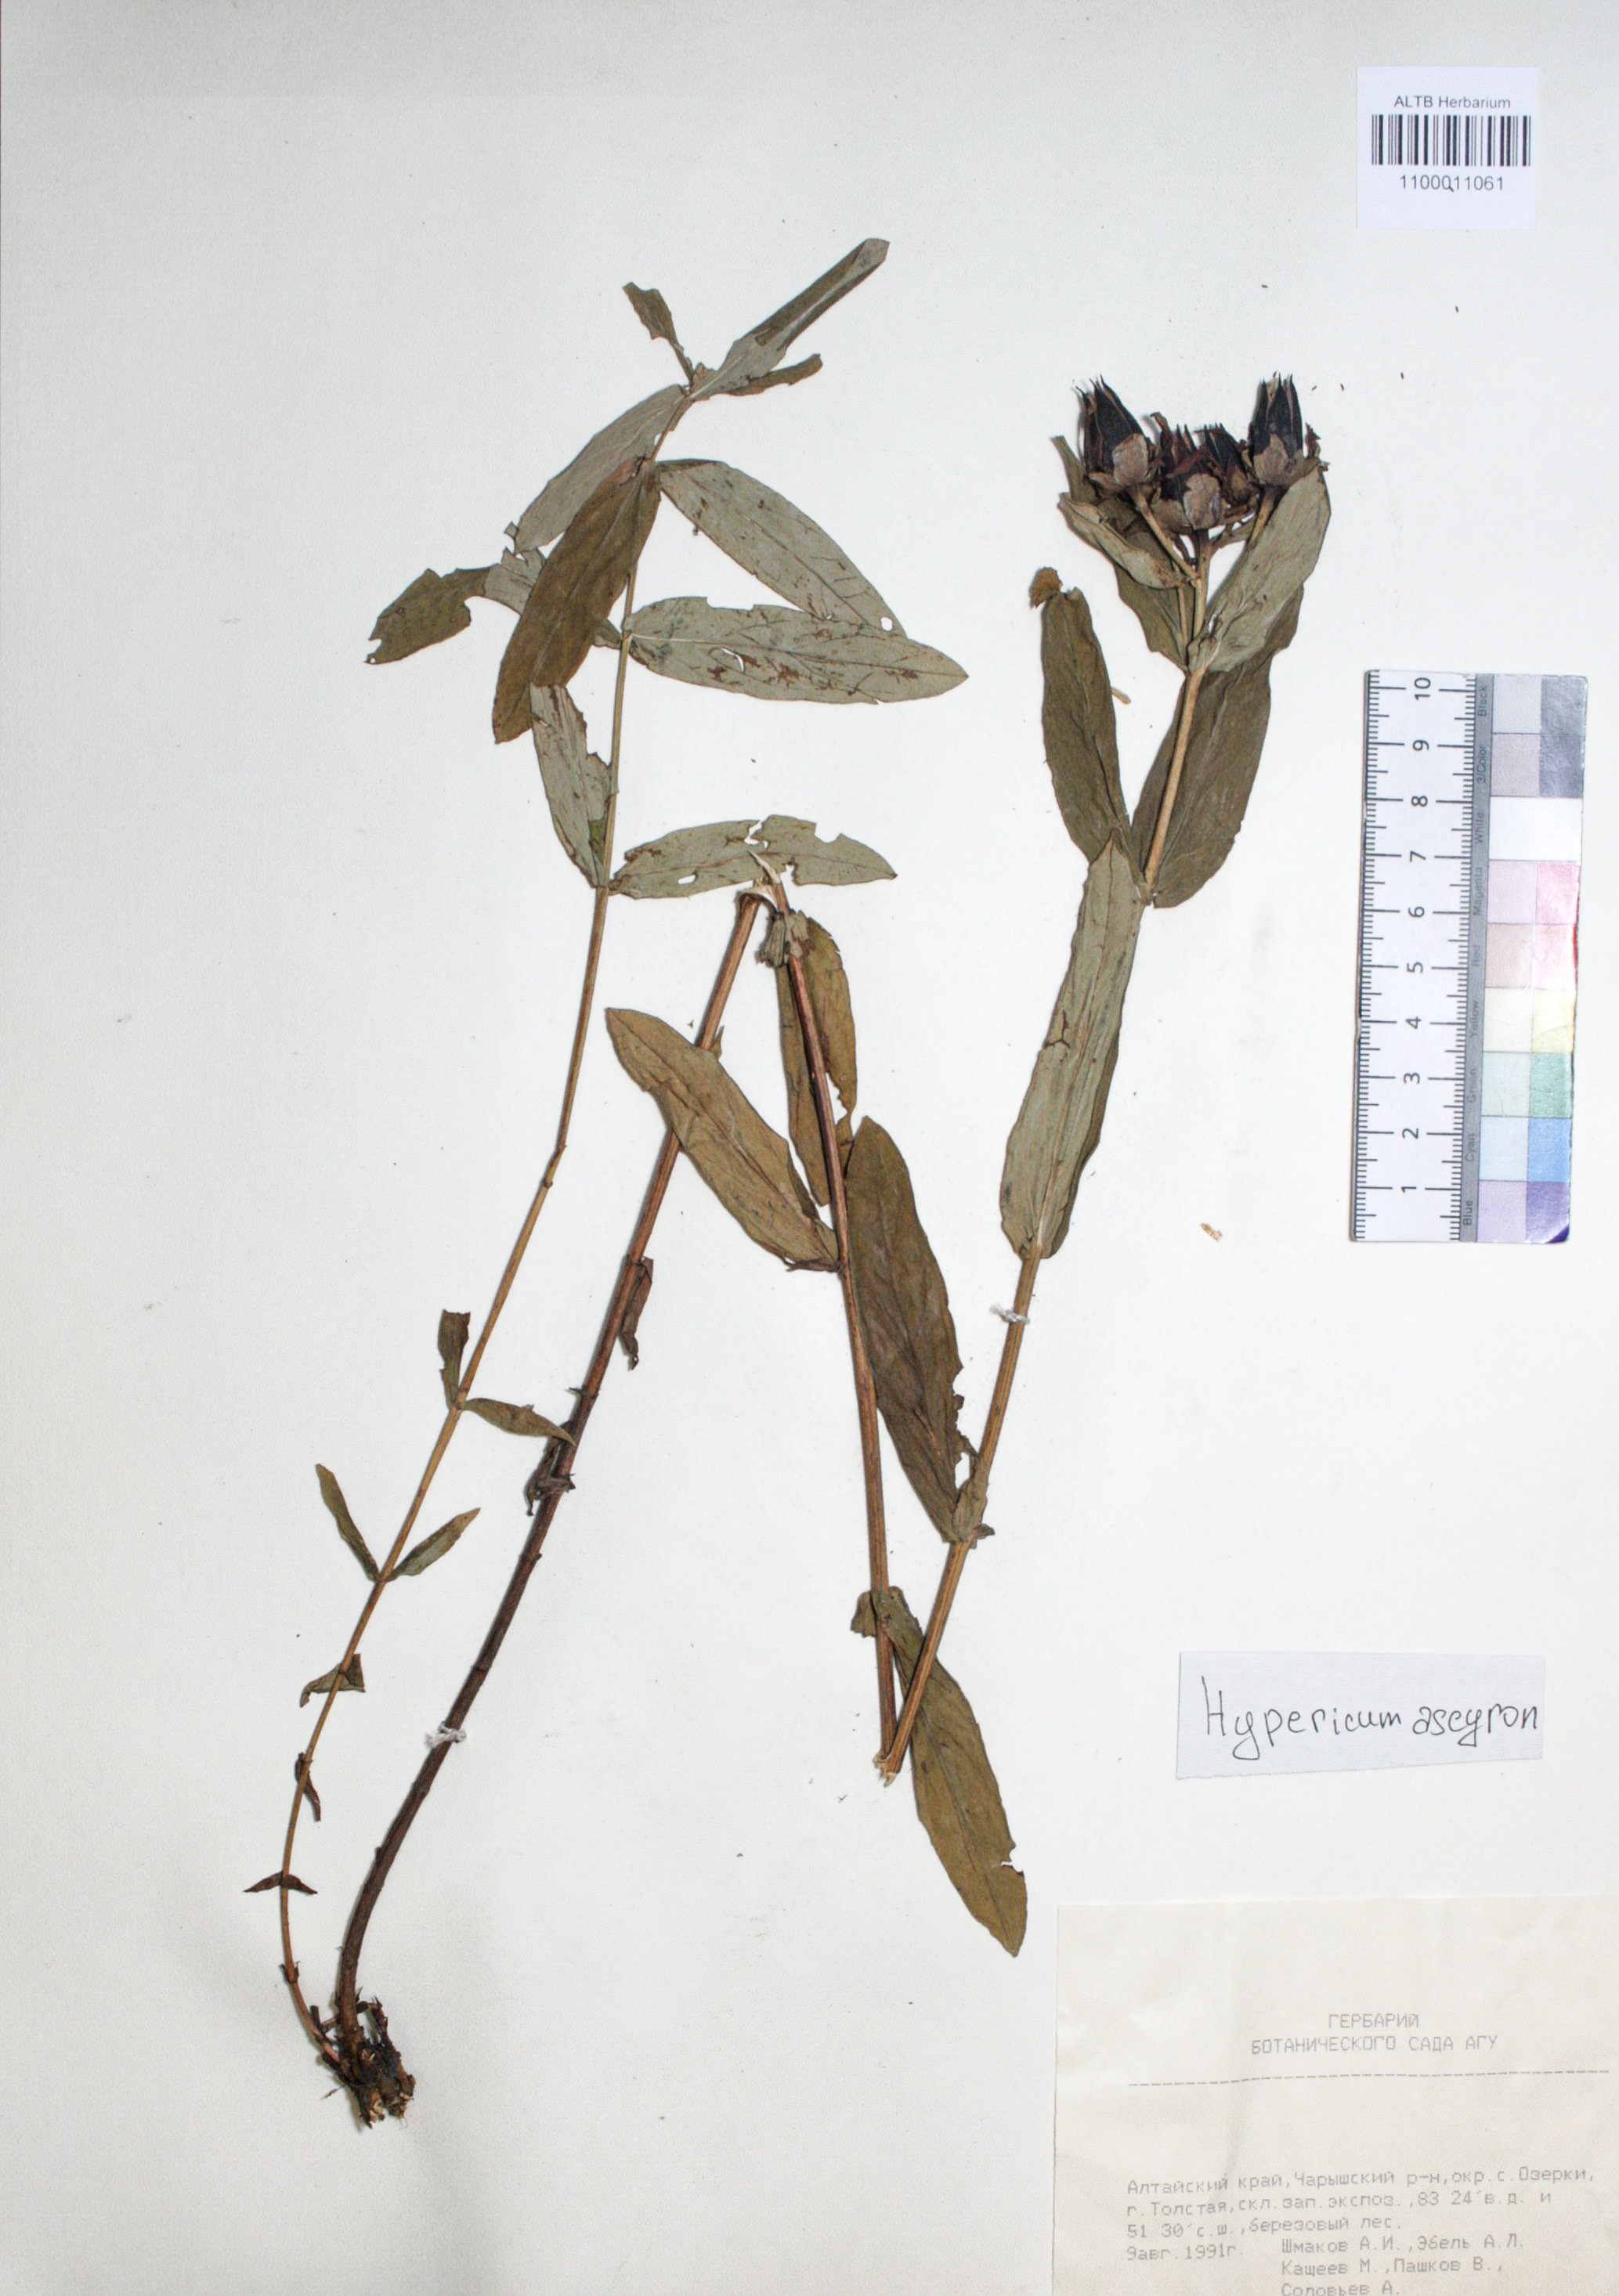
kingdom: Plantae
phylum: Tracheophyta
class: Magnoliopsida
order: Malpighiales
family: Hypericaceae
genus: Hypericum
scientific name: Hypericum ascyron
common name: Giant st. john's-wort
